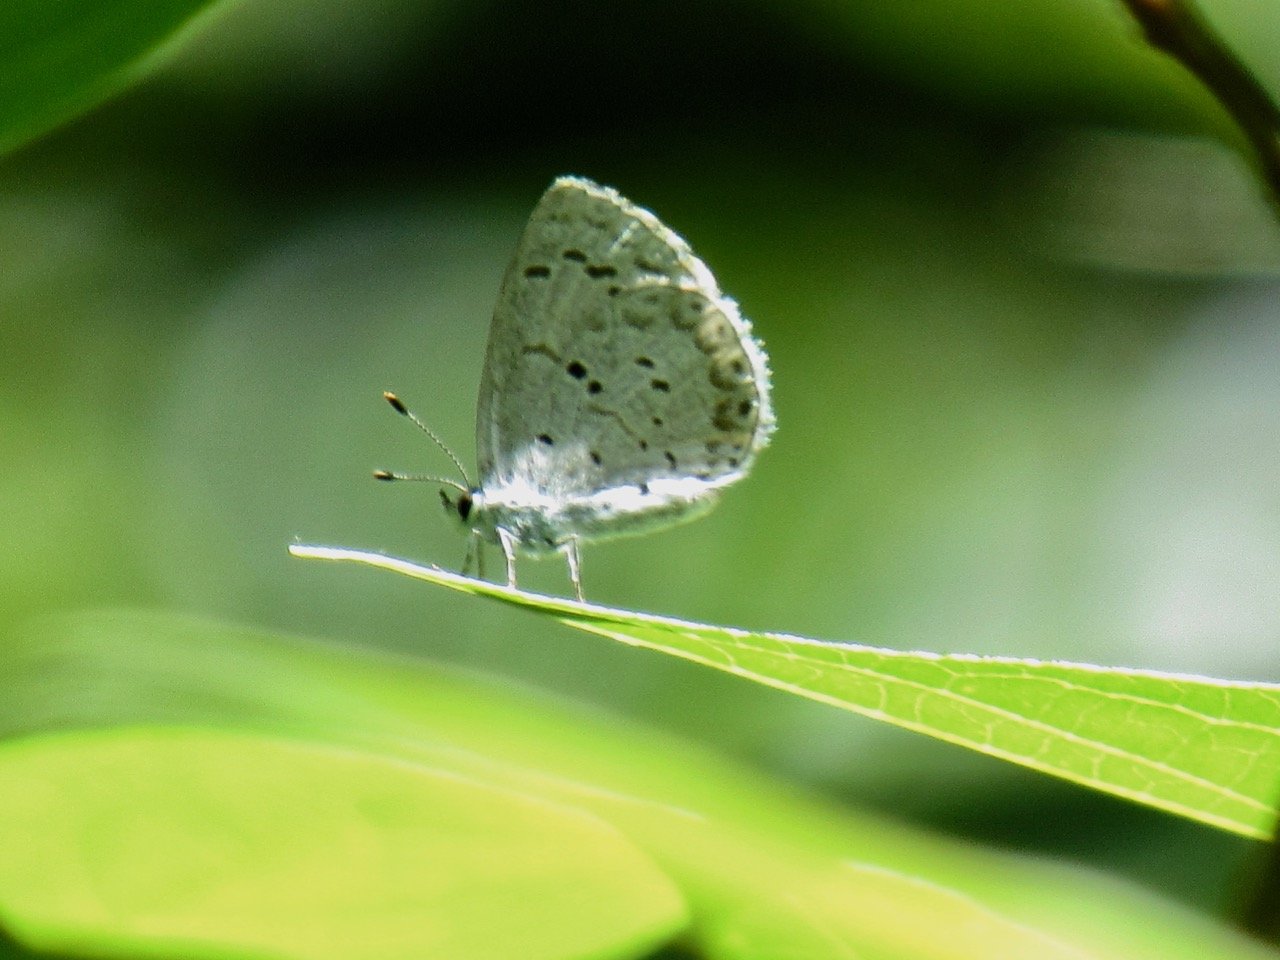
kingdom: Animalia
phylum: Arthropoda
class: Insecta
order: Lepidoptera
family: Lycaenidae
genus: Celastrina
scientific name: Celastrina
